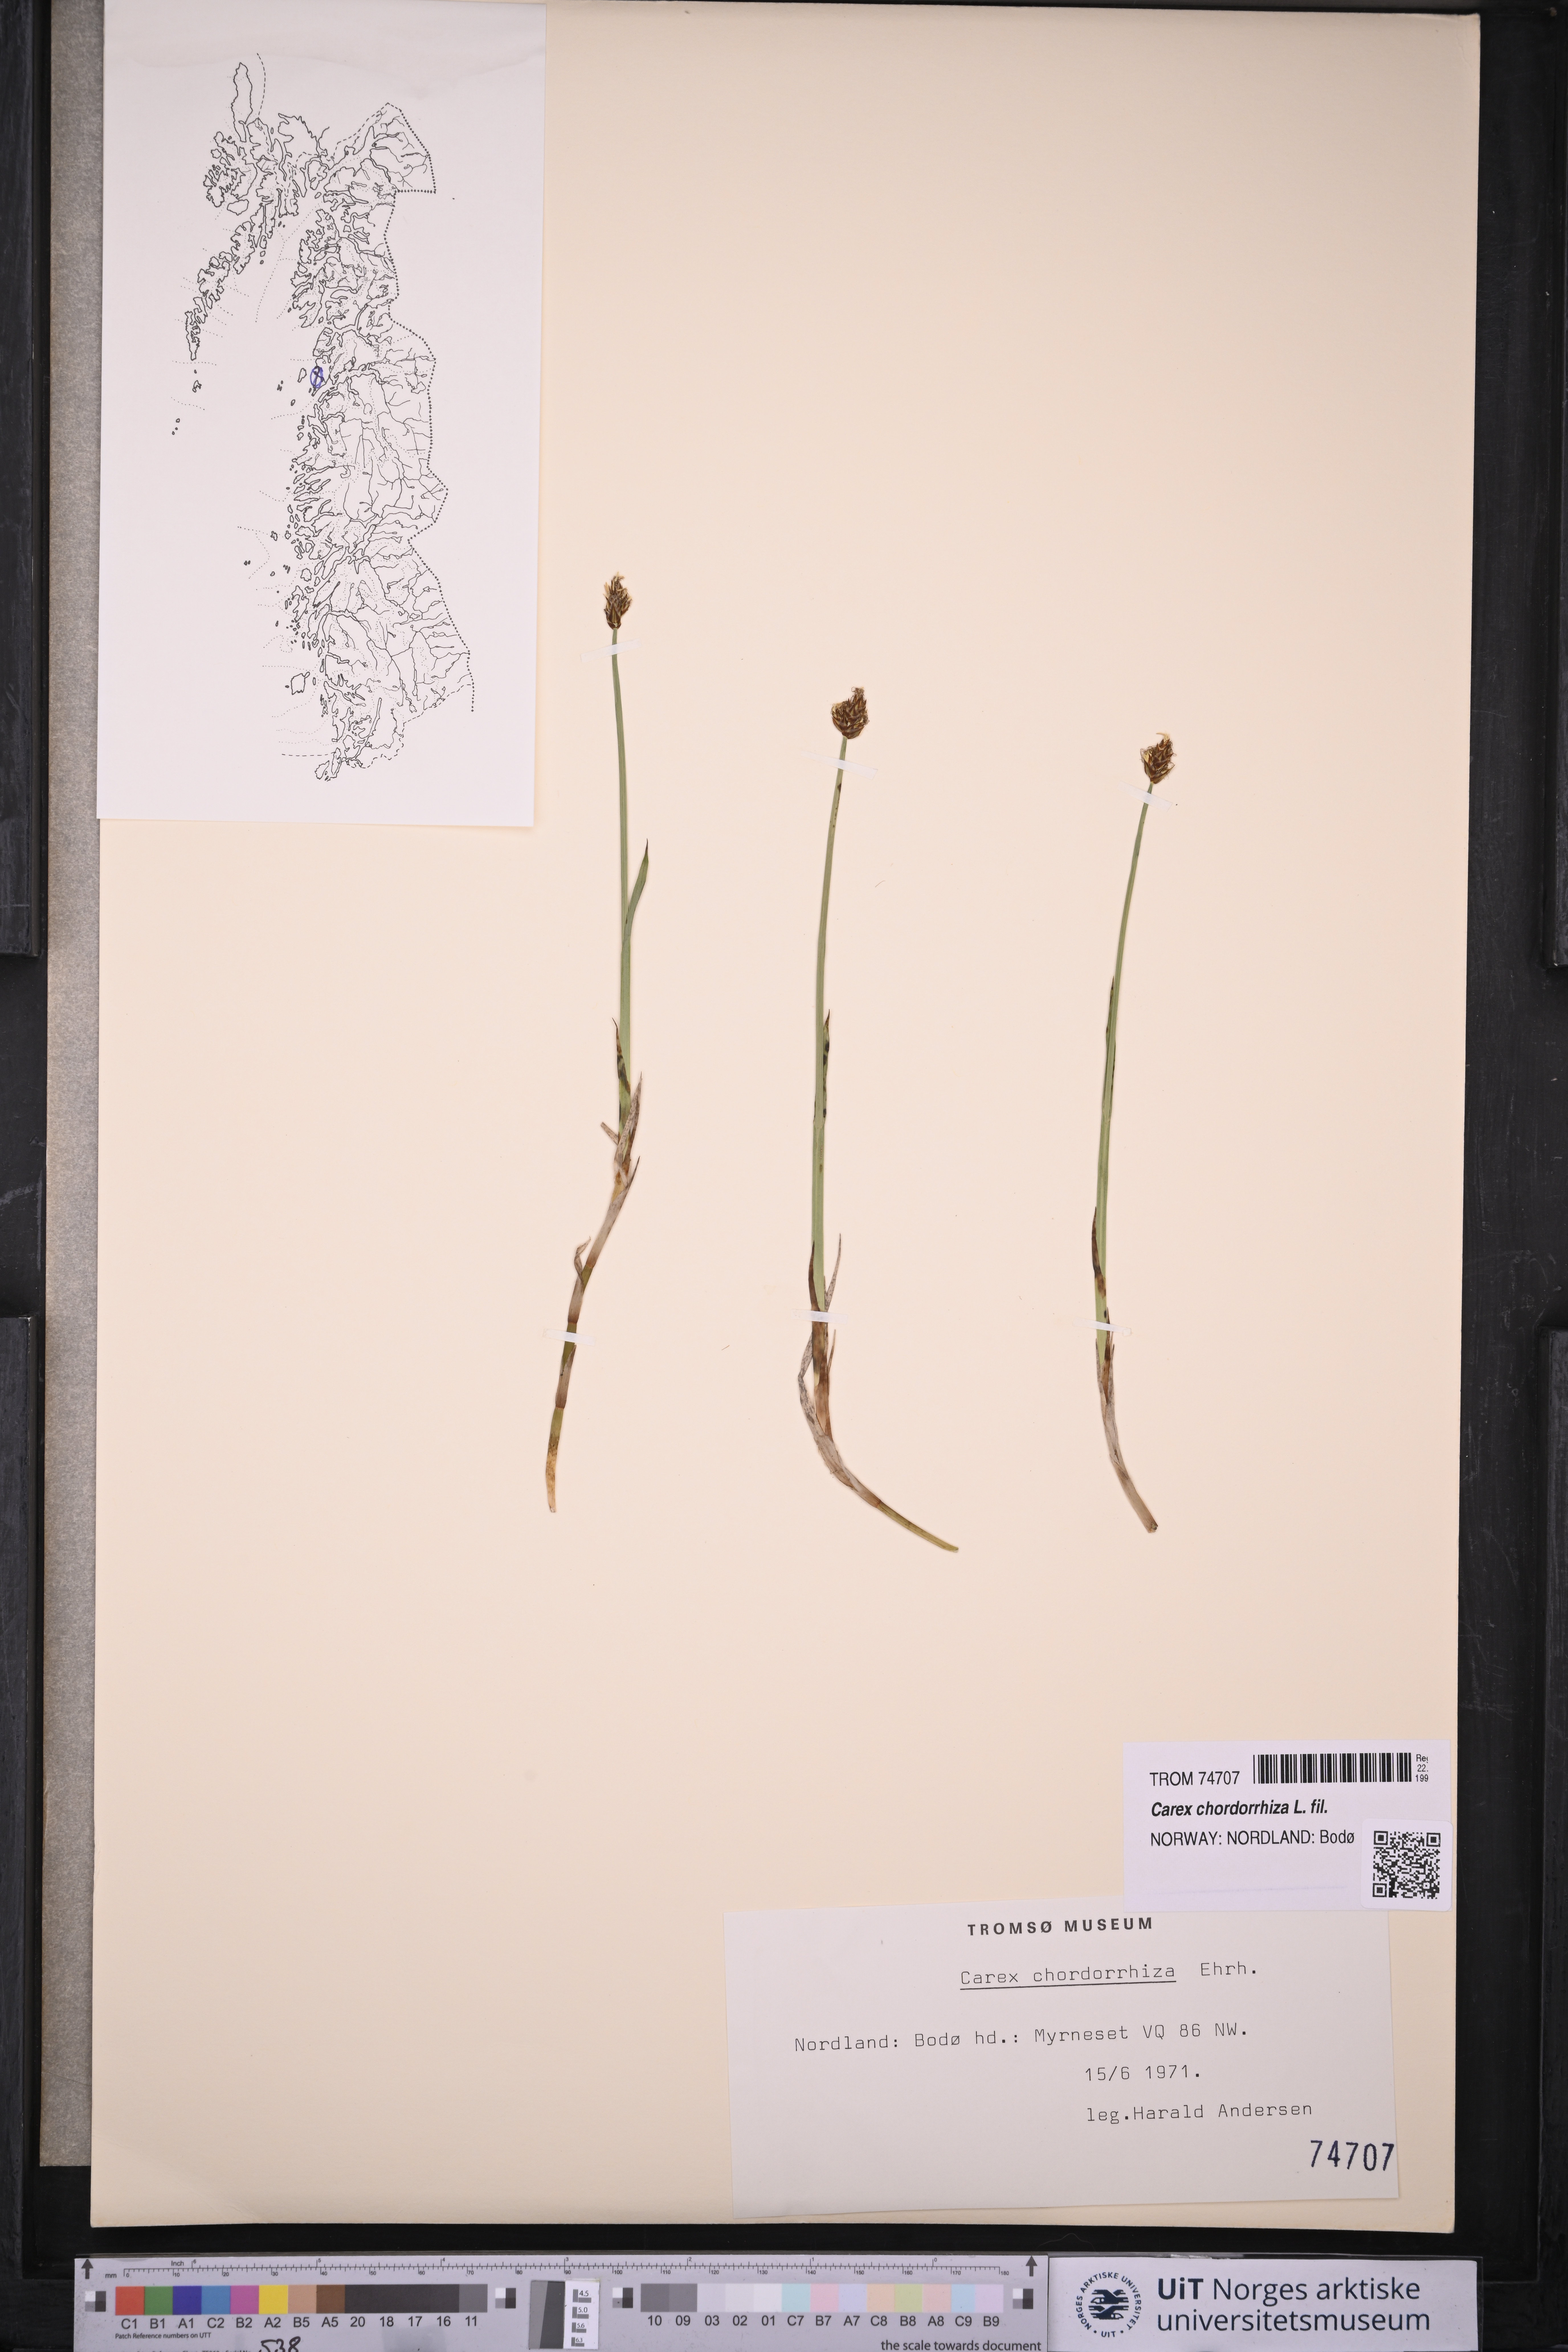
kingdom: Plantae
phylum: Tracheophyta
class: Liliopsida
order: Poales
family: Cyperaceae
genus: Carex
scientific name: Carex chordorrhiza
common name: String sedge
